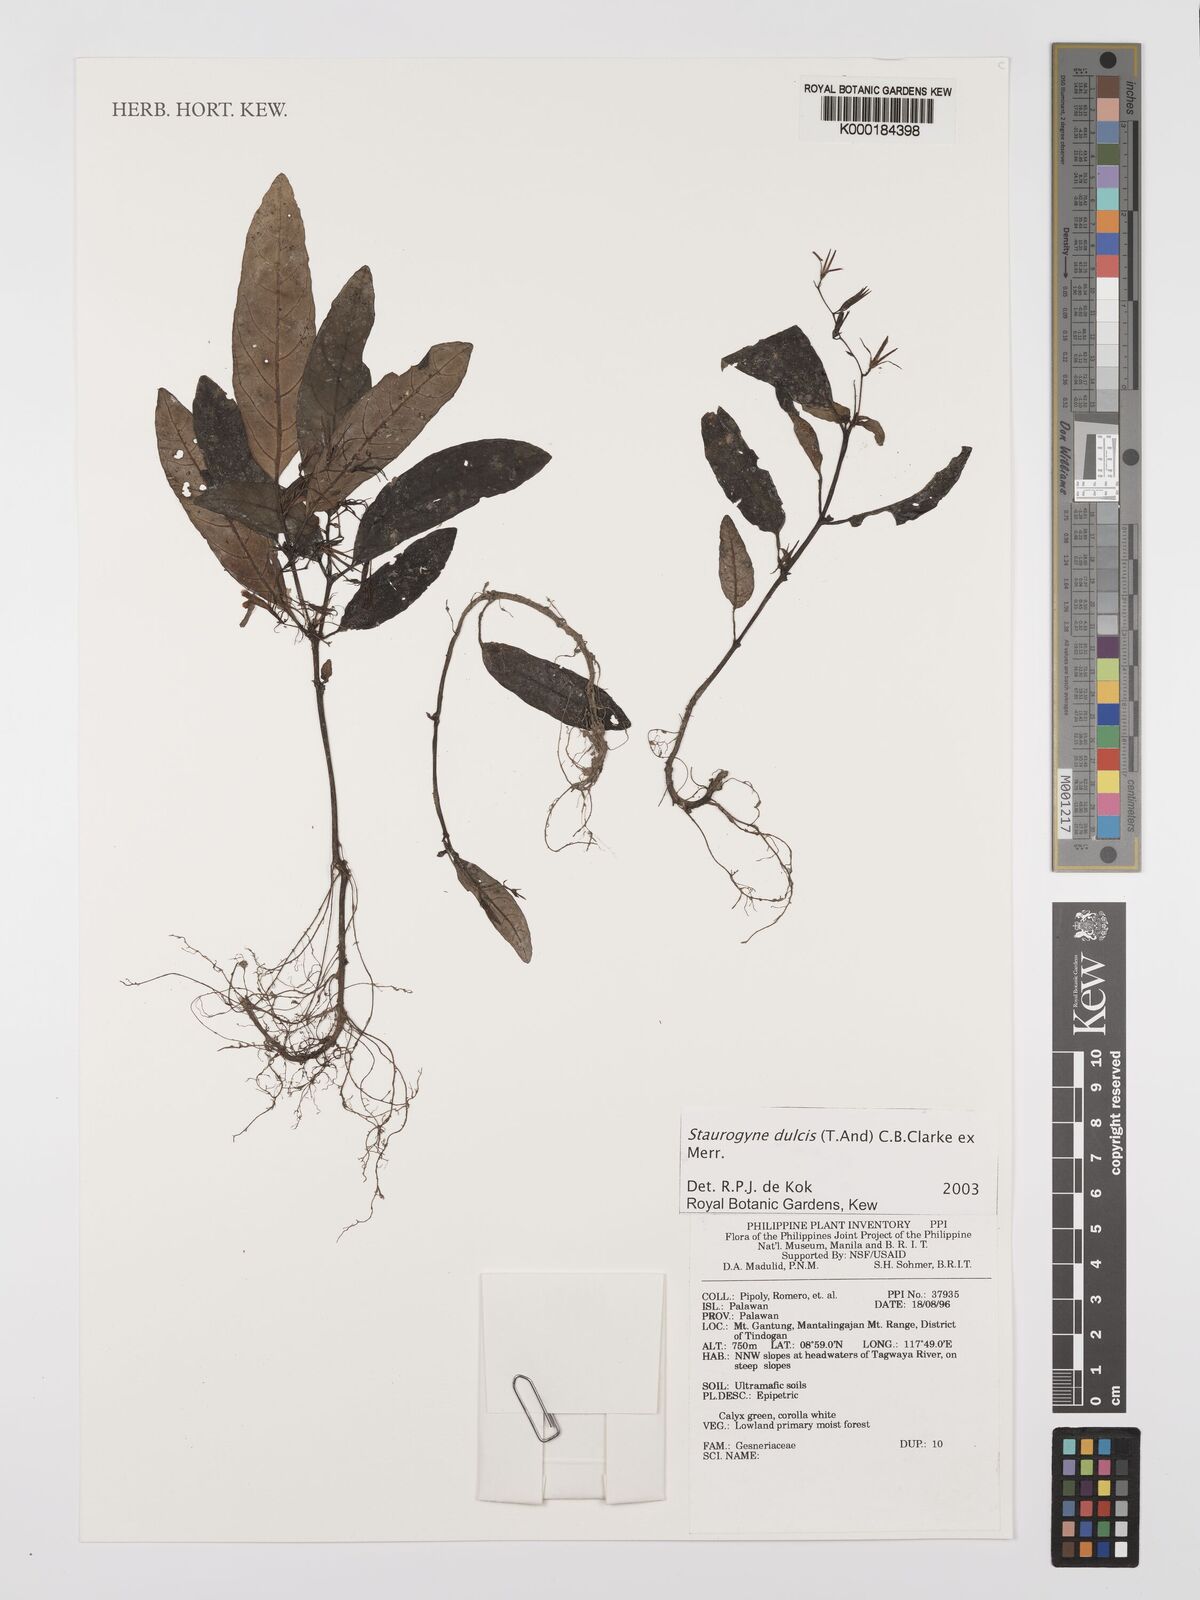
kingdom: Plantae
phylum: Tracheophyta
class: Magnoliopsida
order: Lamiales
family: Acanthaceae
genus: Staurogyne
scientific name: Staurogyne
